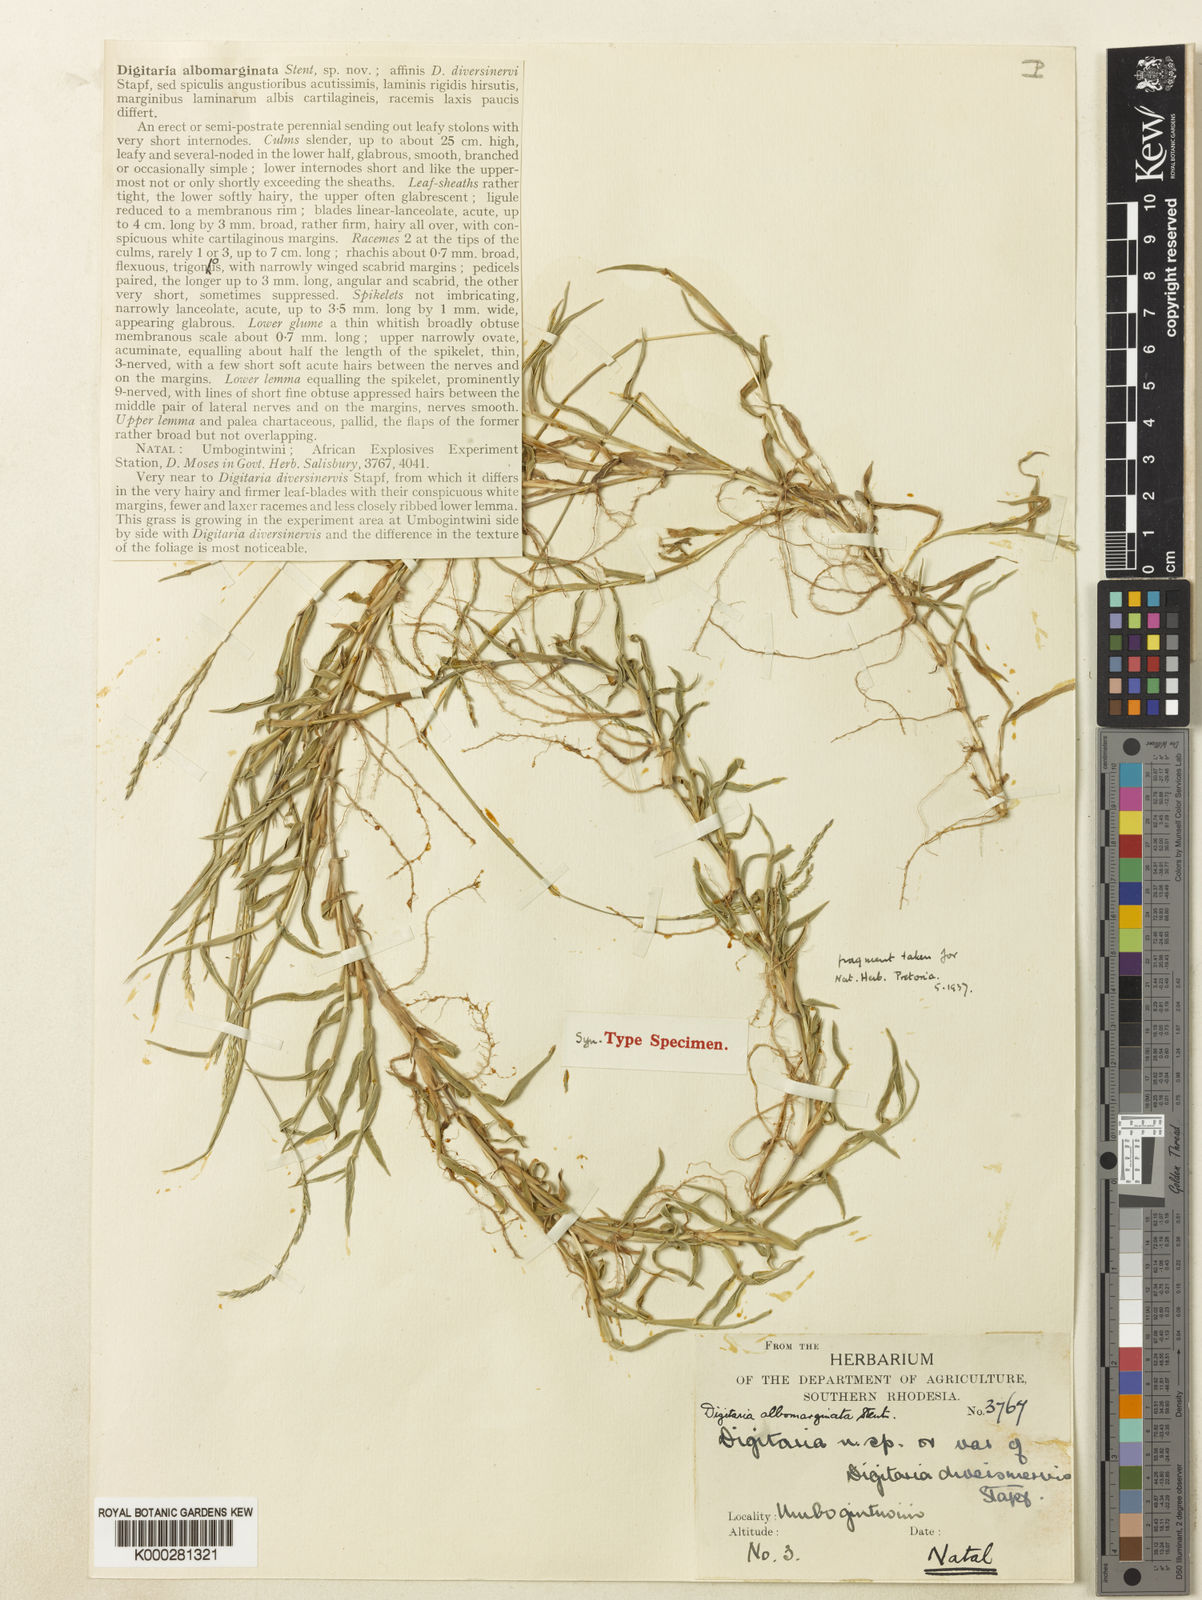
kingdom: Plantae
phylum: Tracheophyta
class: Liliopsida
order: Poales
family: Poaceae
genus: Digitaria
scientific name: Digitaria diversinervis
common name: Richmond finger grass
